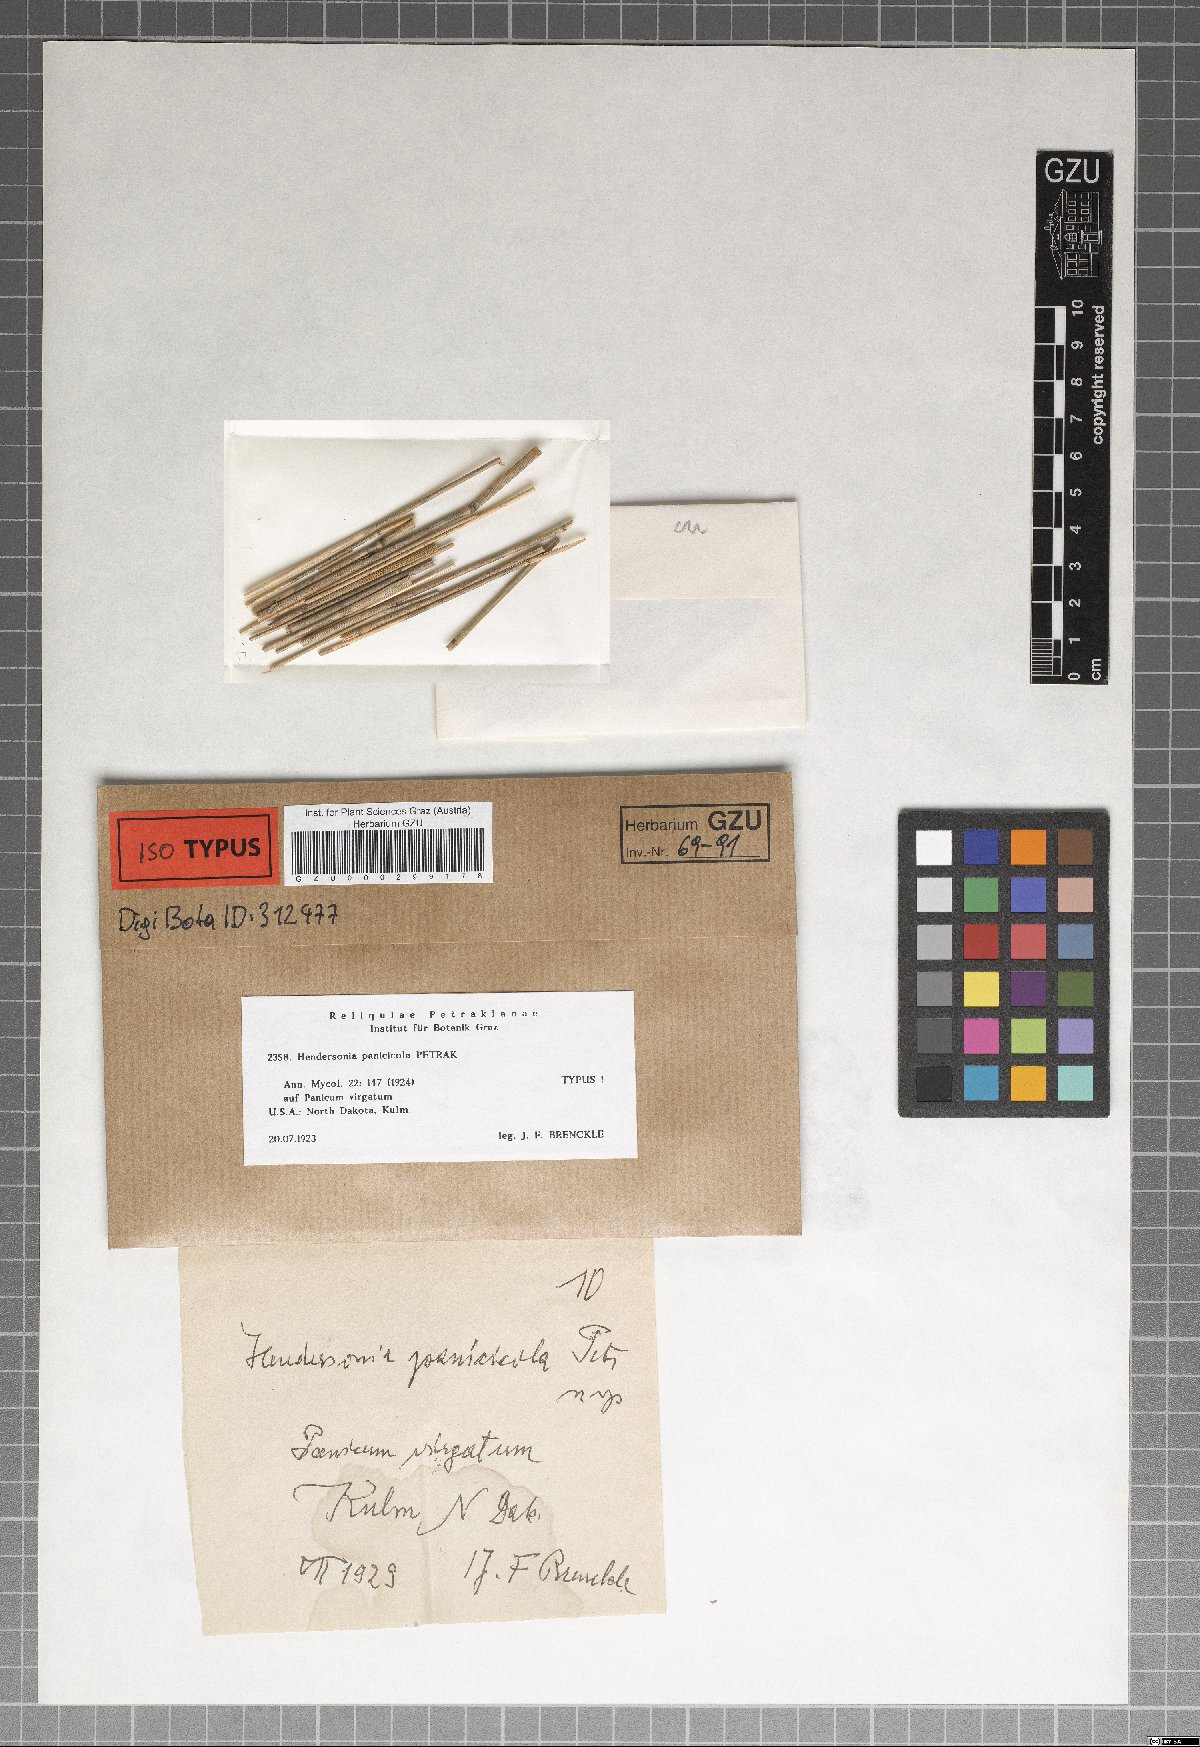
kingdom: Fungi
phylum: Ascomycota
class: Dothideomycetes
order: Pleosporales
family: Phaeosphaeriaceae
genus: Hendersonia
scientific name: Hendersonia panicicola
